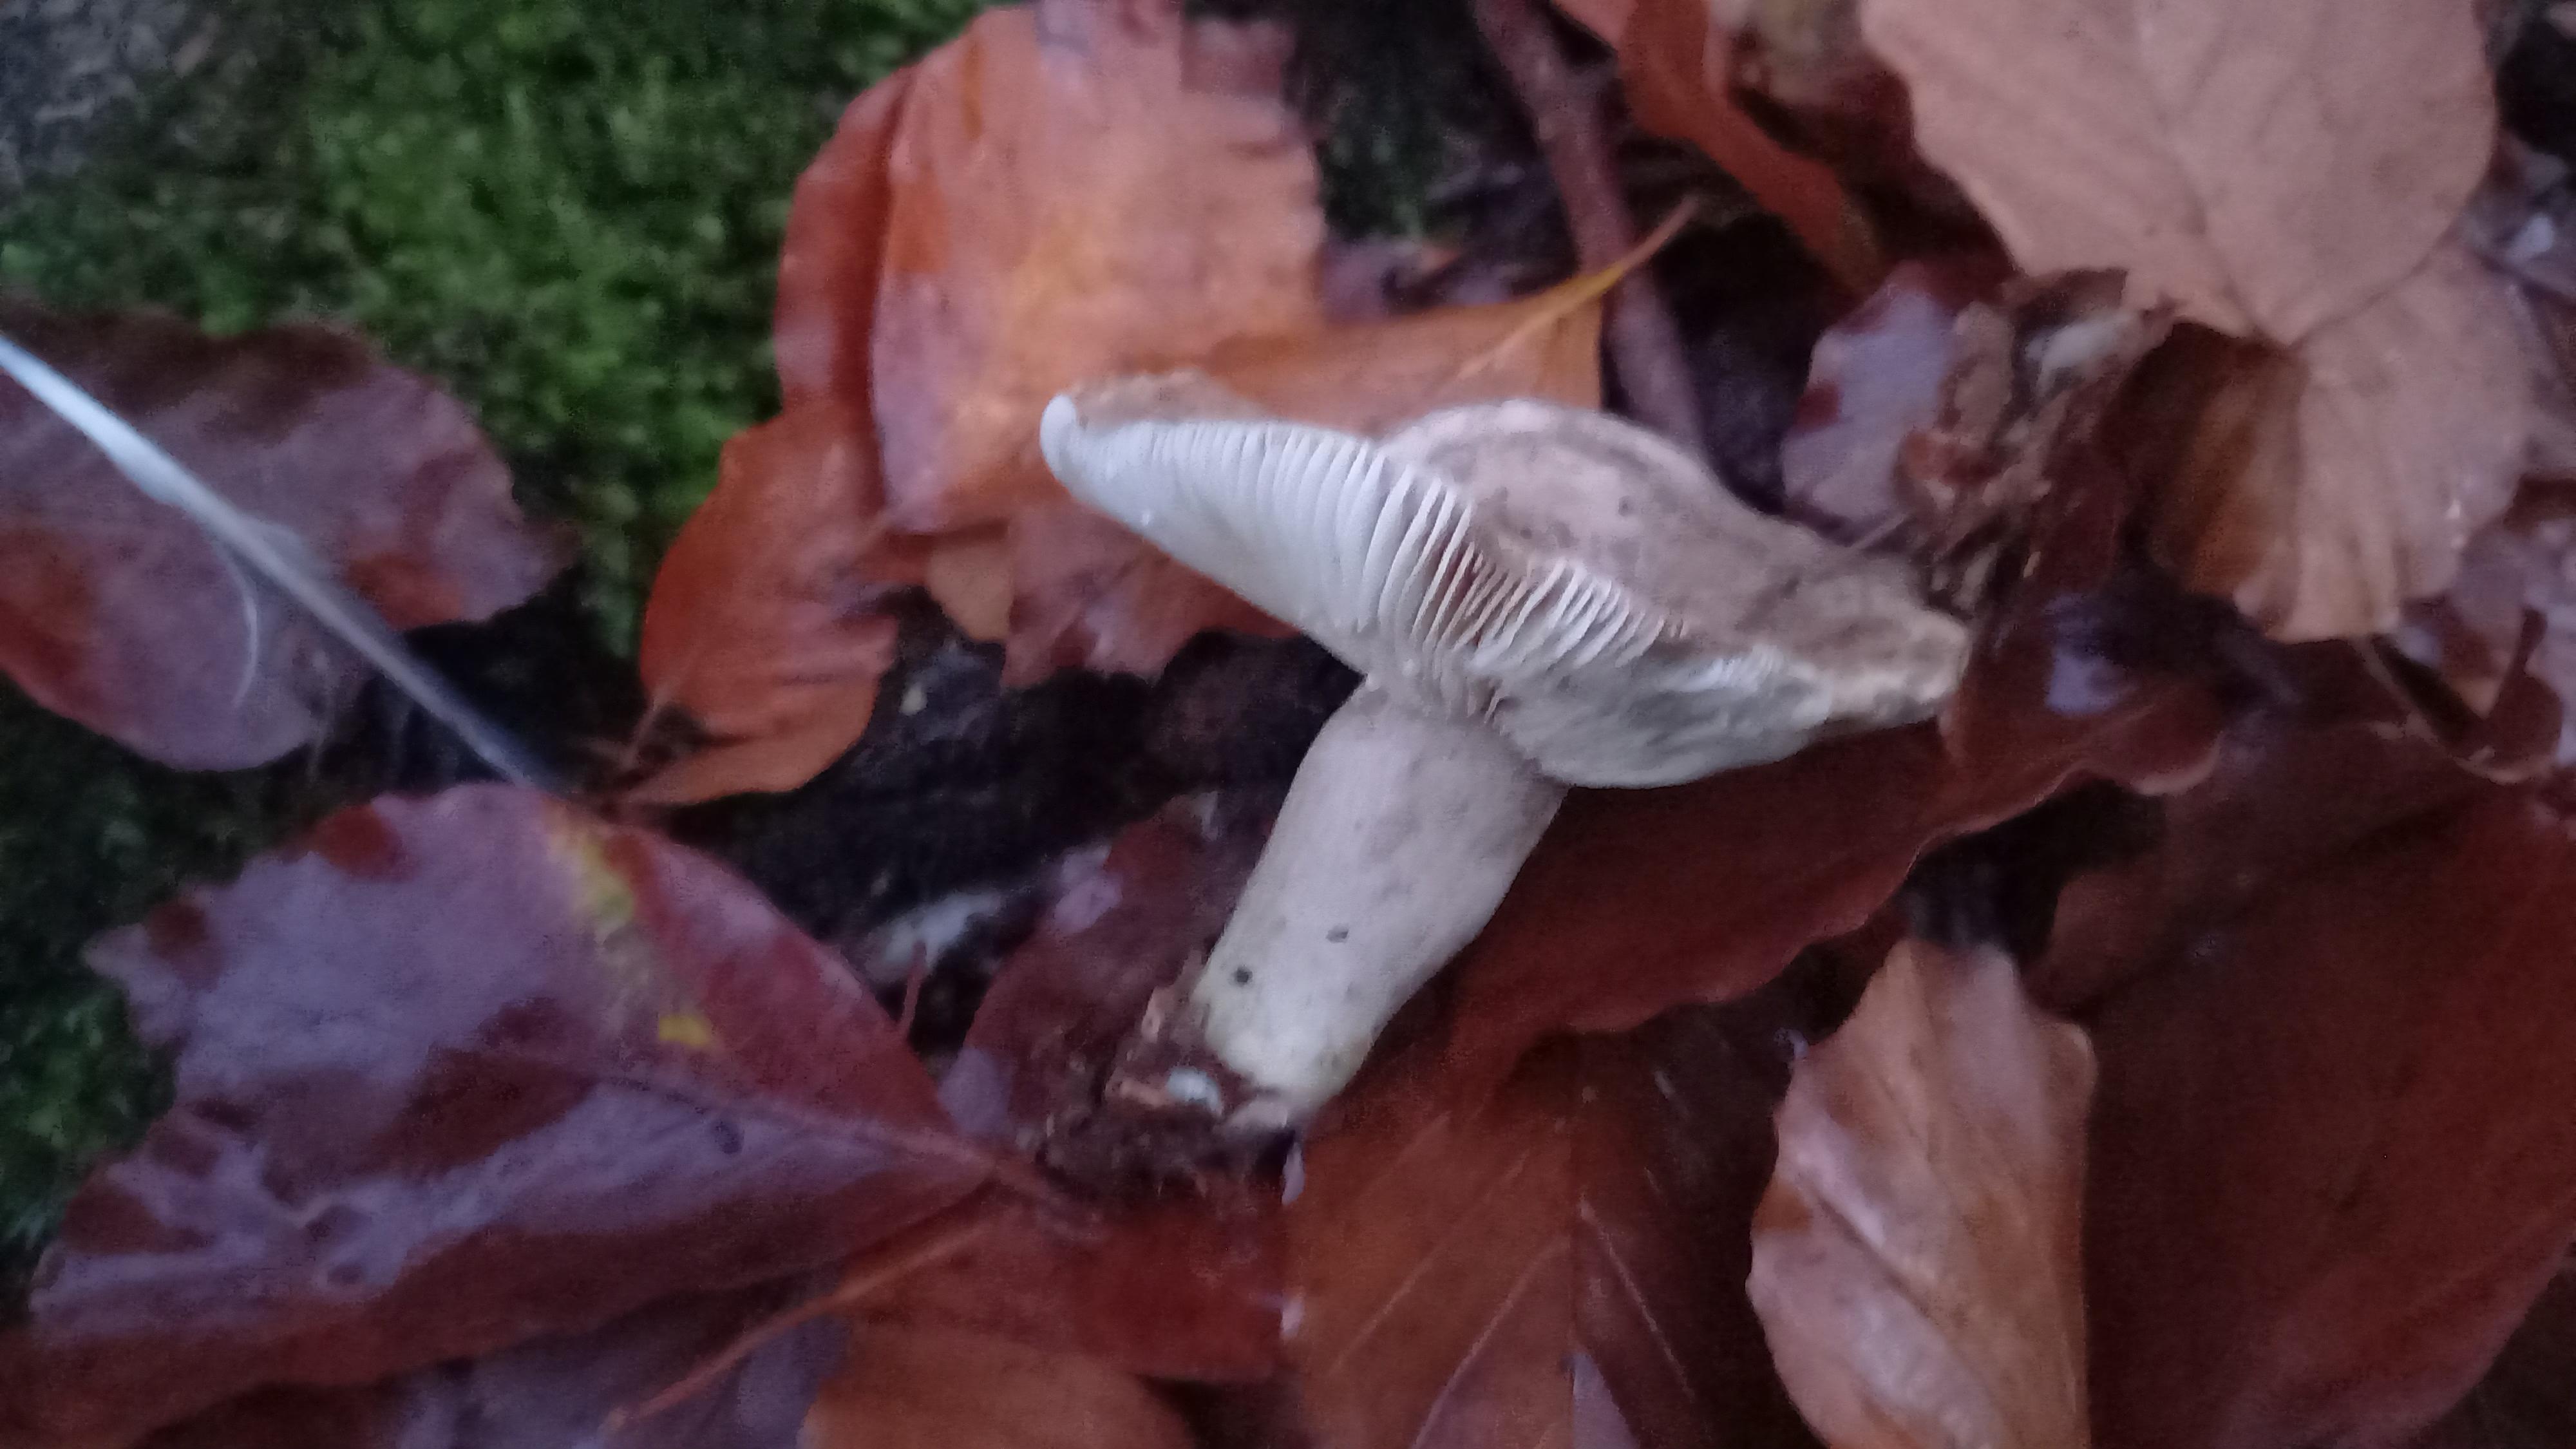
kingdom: Fungi
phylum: Basidiomycota
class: Agaricomycetes
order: Russulales
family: Russulaceae
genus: Lactarius
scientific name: Lactarius blennius
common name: dråbeplettet mælkehat
